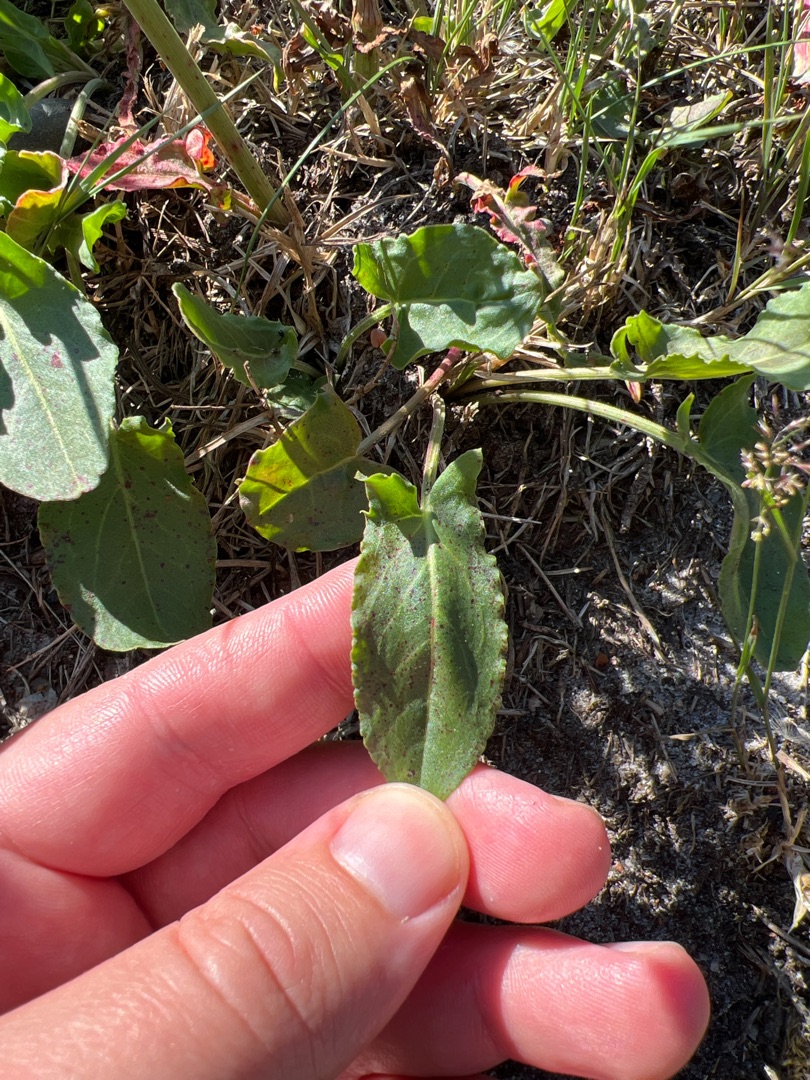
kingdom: Plantae
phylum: Tracheophyta
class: Magnoliopsida
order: Caryophyllales
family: Polygonaceae
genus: Rumex
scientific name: Rumex thyrsiflorus
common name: Dusk-syre
